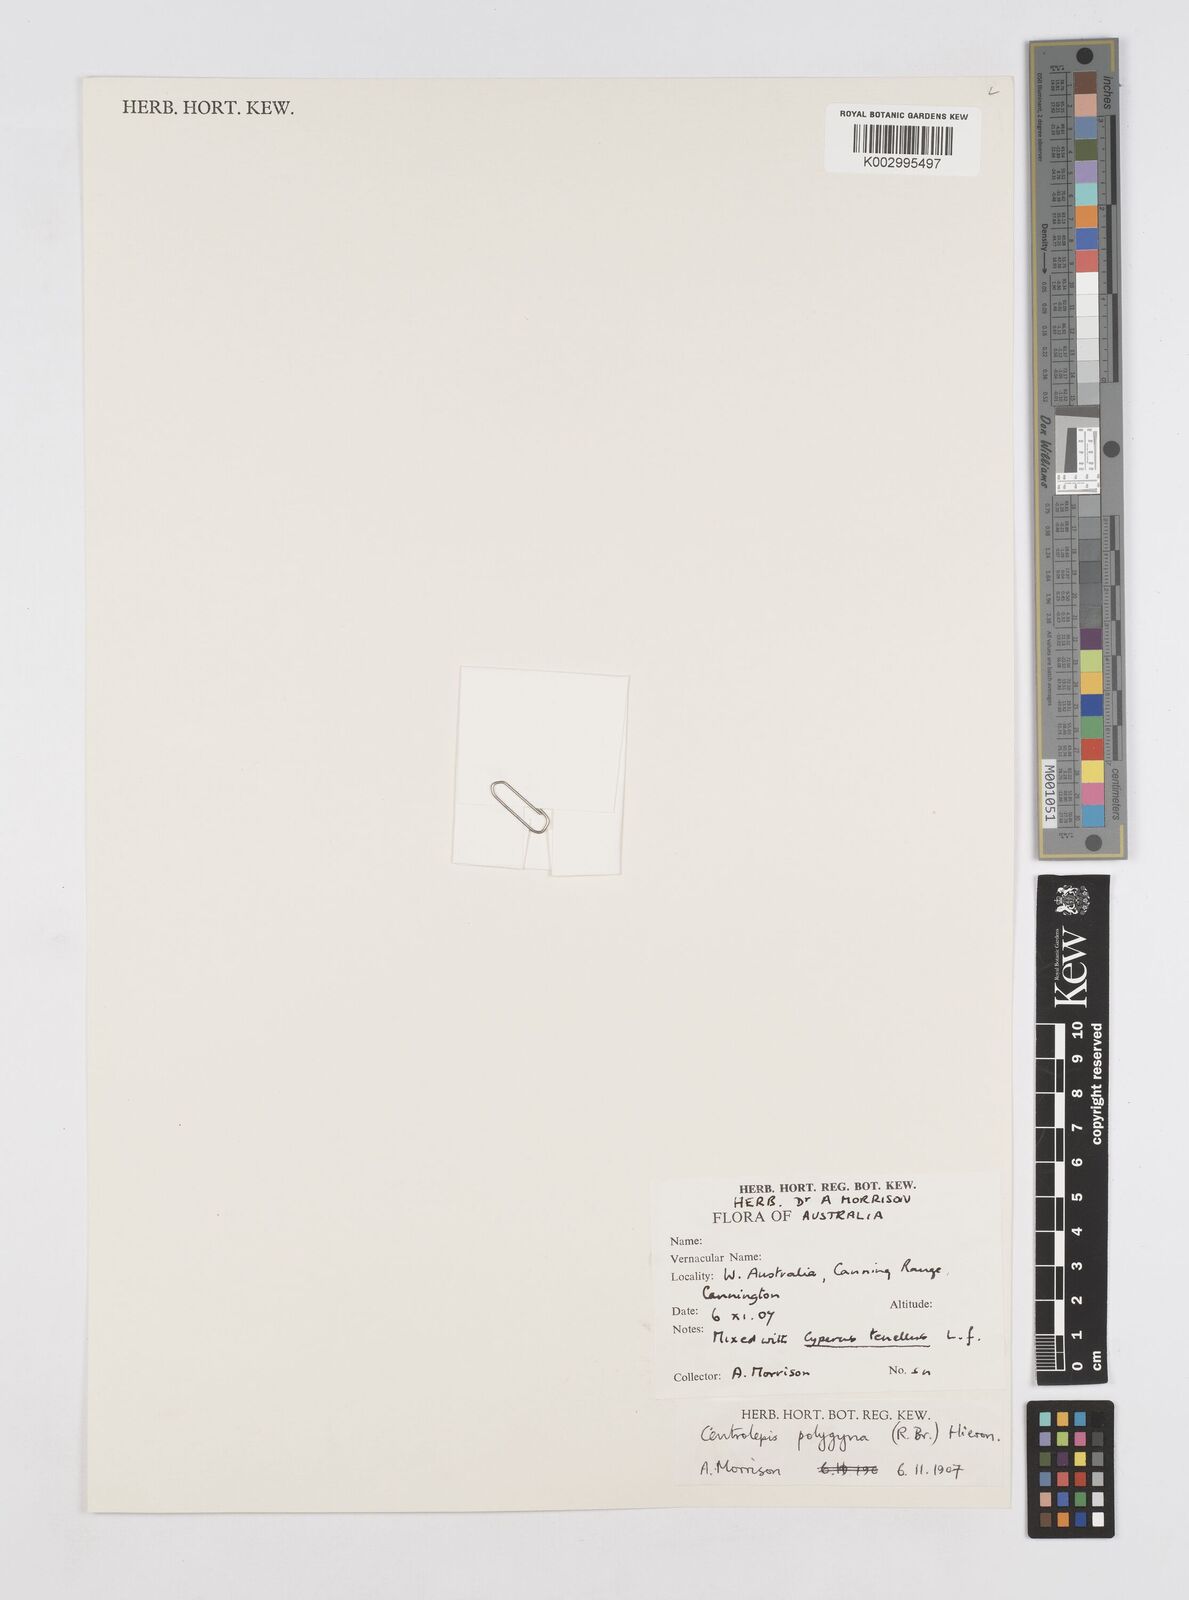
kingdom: Plantae
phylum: Tracheophyta
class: Liliopsida
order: Poales
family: Restionaceae
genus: Centrolepis
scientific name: Centrolepis polygyna
